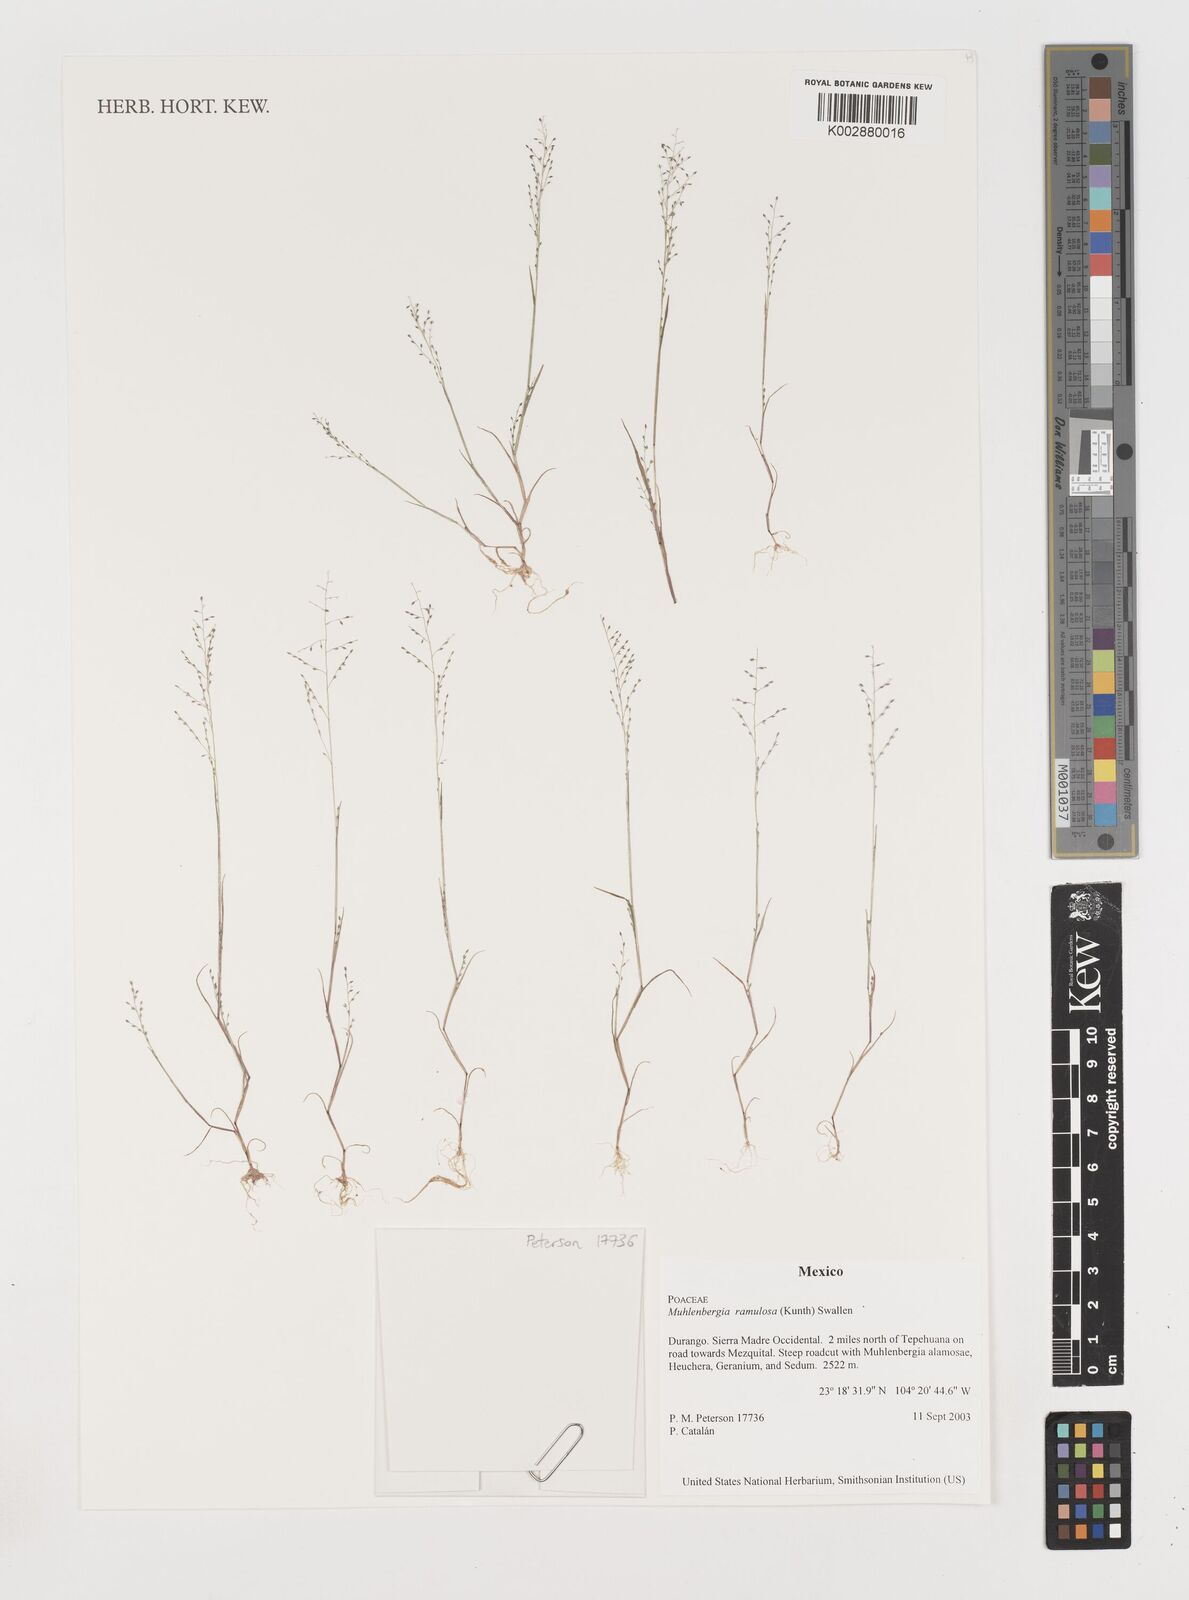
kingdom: Plantae
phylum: Tracheophyta
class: Liliopsida
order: Poales
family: Poaceae
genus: Muhlenbergia
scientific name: Muhlenbergia ramulosa
